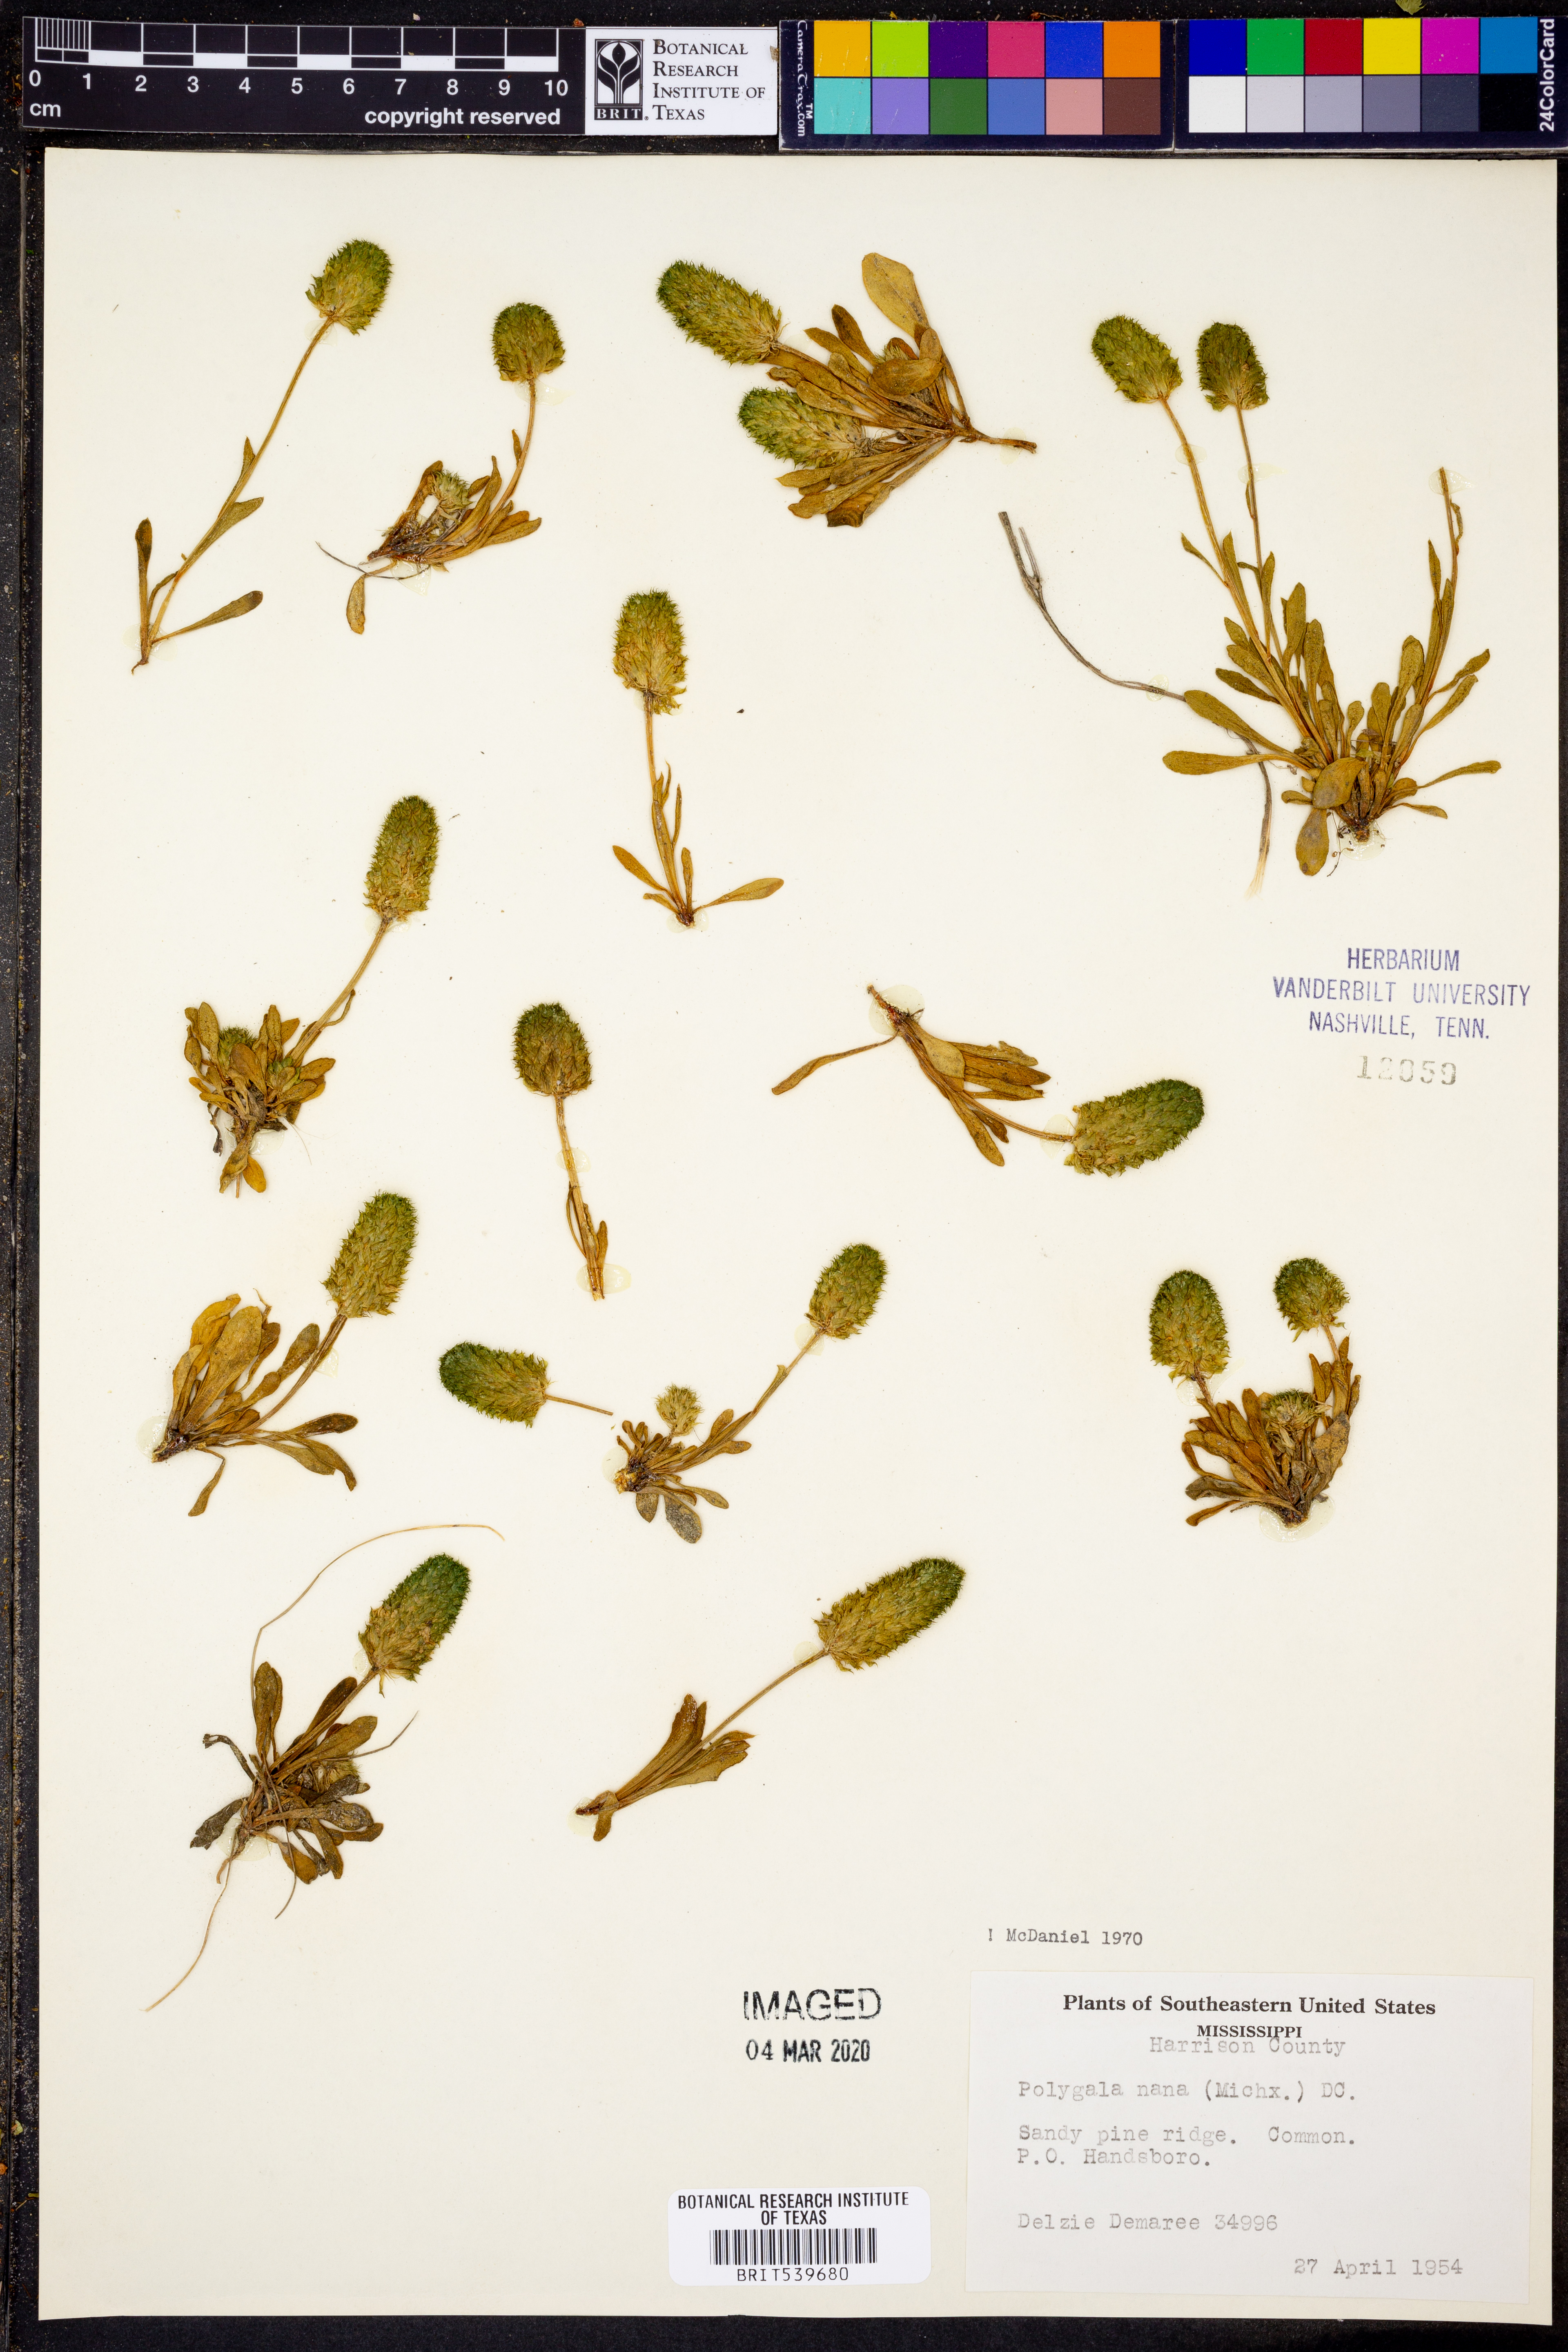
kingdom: Plantae
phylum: Tracheophyta
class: Magnoliopsida
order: Fabales
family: Polygalaceae
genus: Polygala
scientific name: Polygala nana
